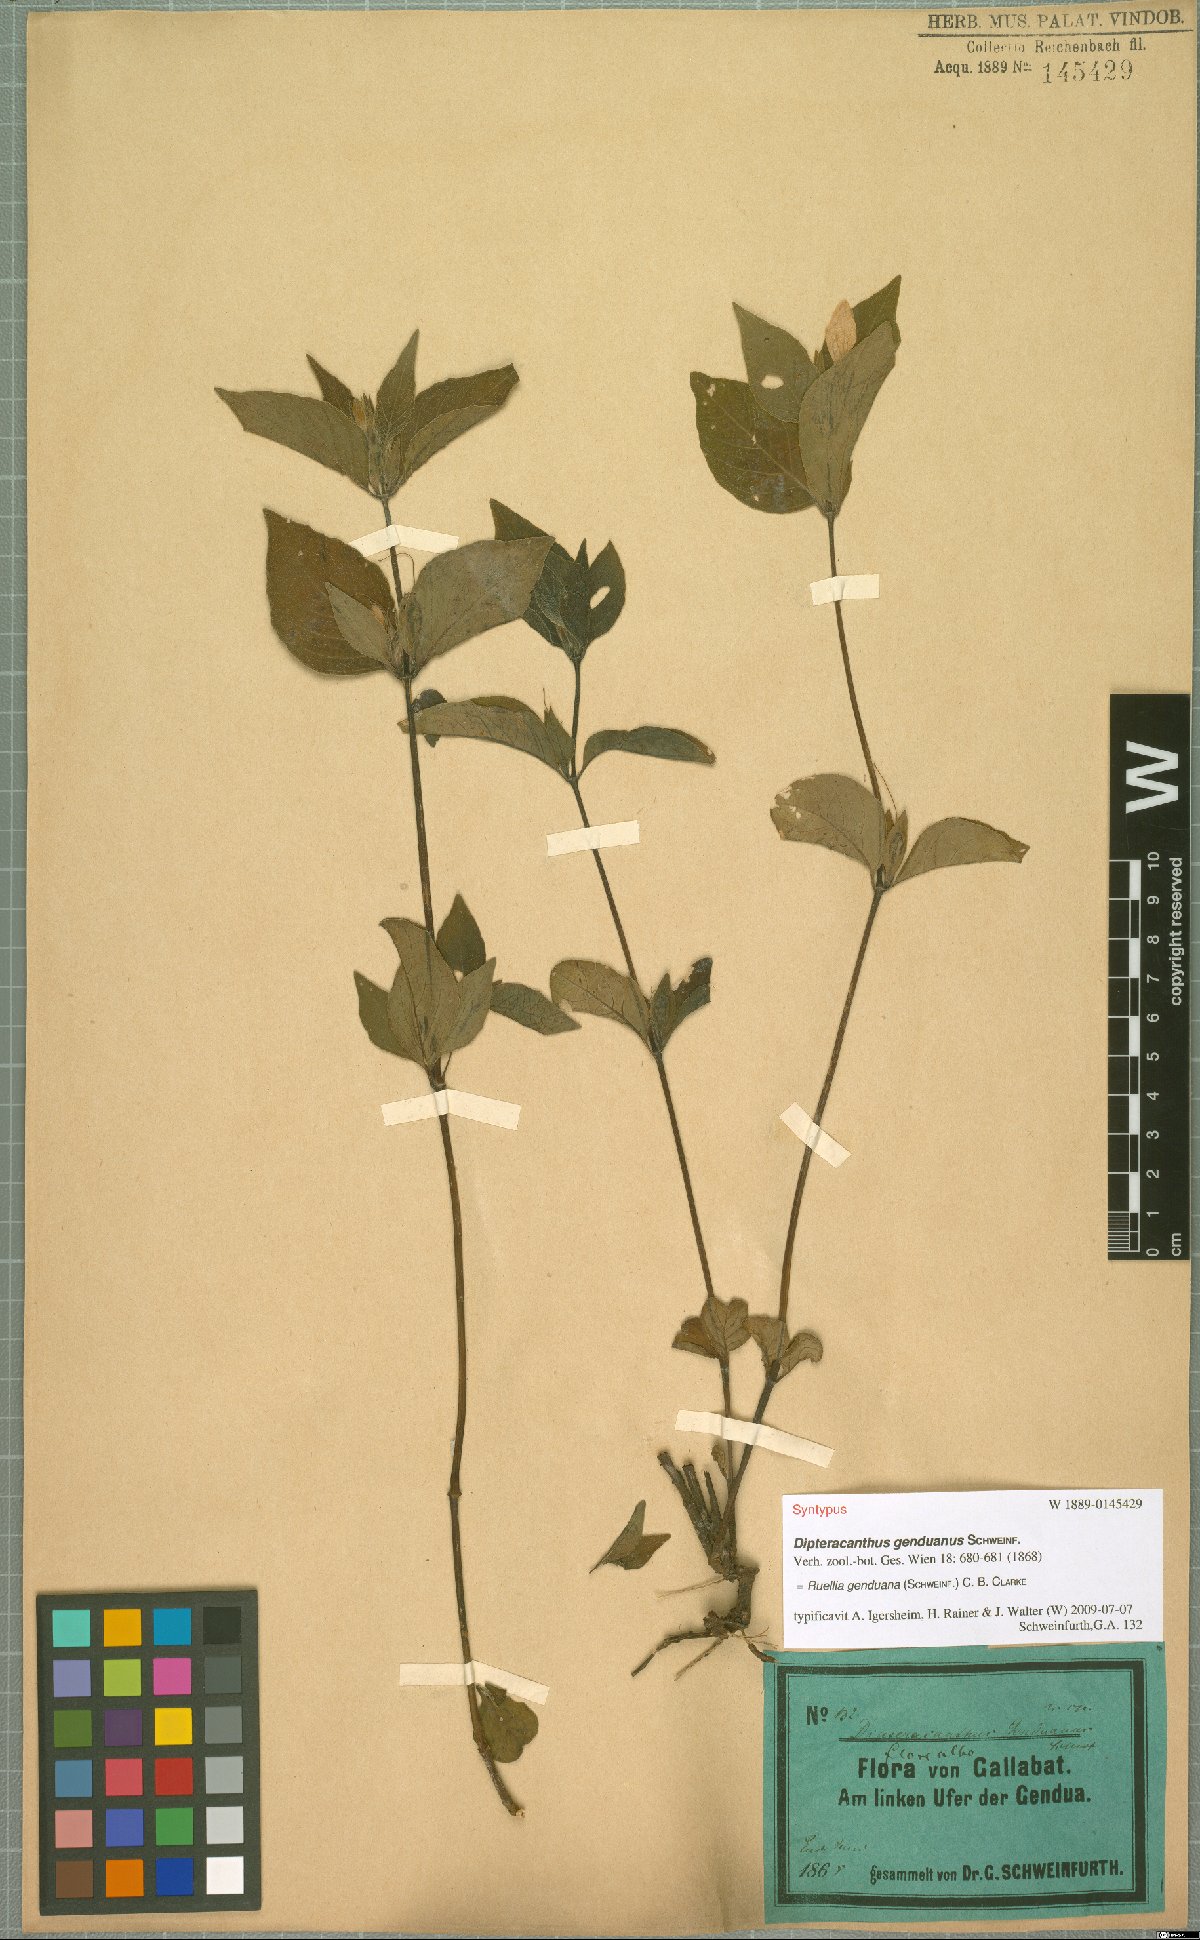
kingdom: Plantae
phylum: Tracheophyta
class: Magnoliopsida
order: Lamiales
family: Acanthaceae
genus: Ruellia
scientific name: Ruellia prostrata
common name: Prostrate wild petunia
